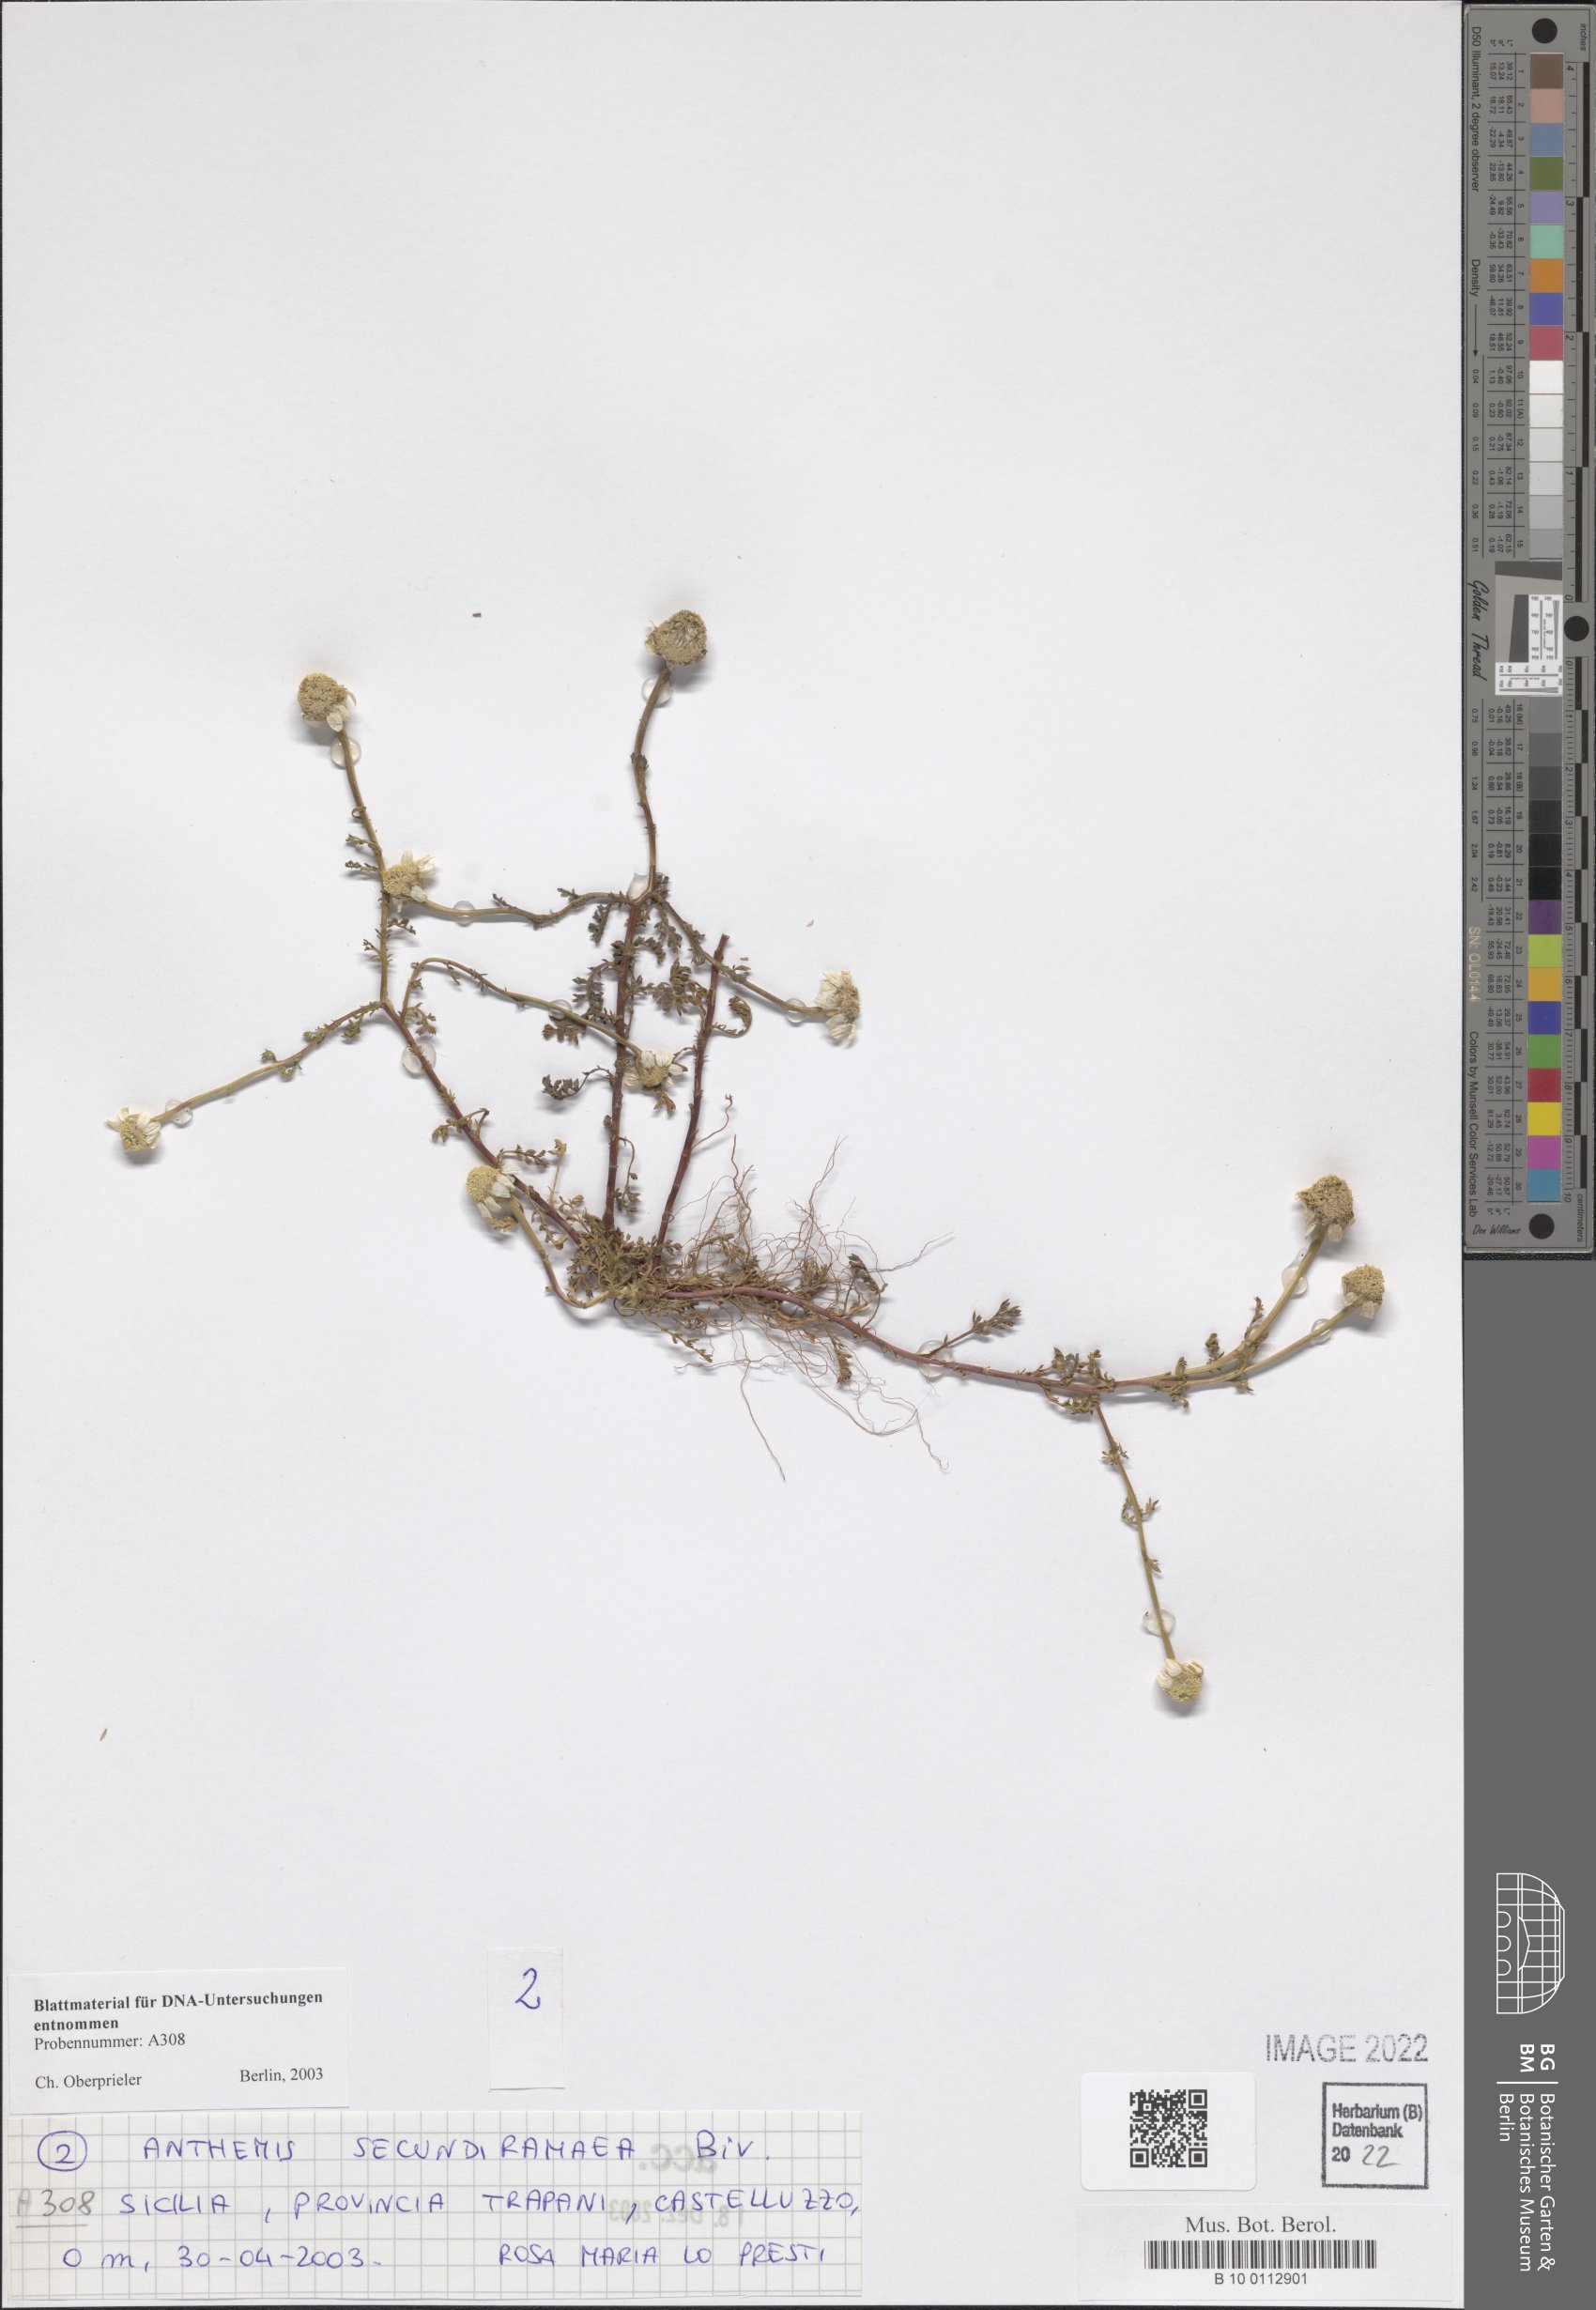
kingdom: Plantae
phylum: Tracheophyta
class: Magnoliopsida
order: Asterales
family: Asteraceae
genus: Anthemis
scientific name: Anthemis secundiramea
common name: Prostrate chamomile
